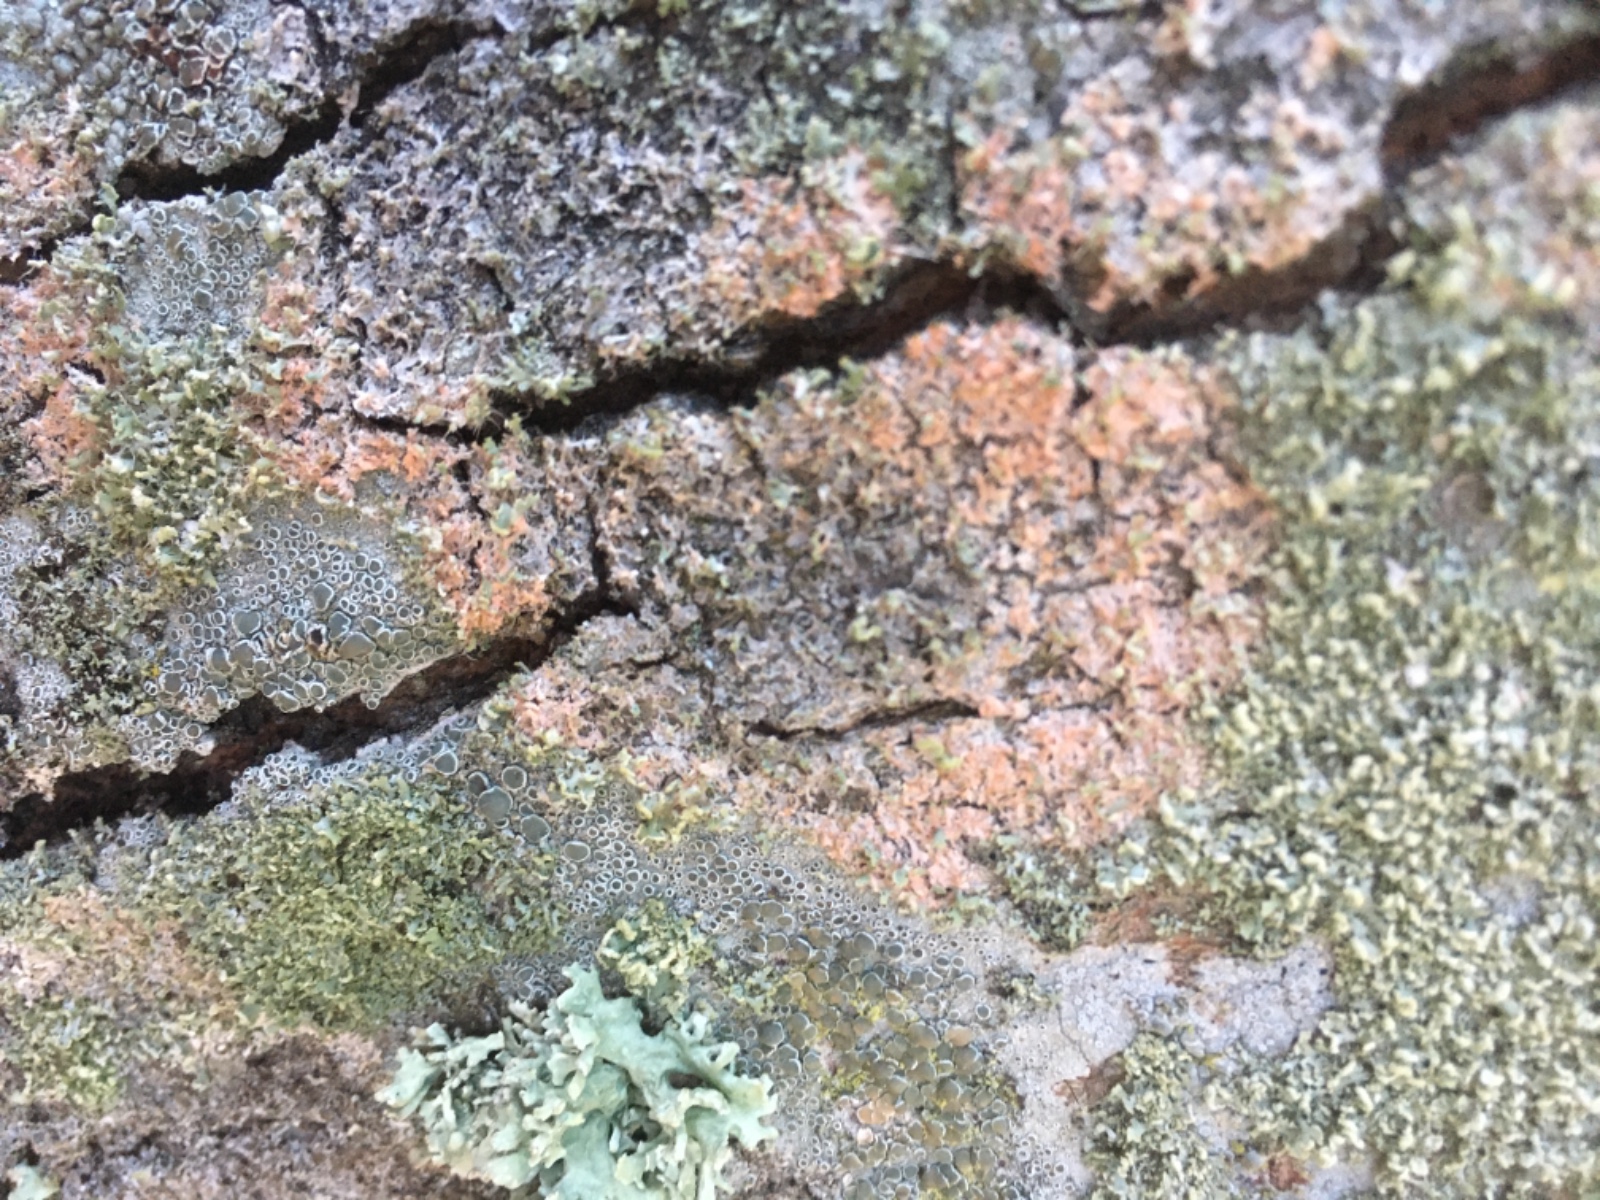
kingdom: Fungi
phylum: Basidiomycota
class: Agaricomycetes
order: Corticiales
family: Corticiaceae
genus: Erythricium
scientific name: Erythricium aurantiacum
